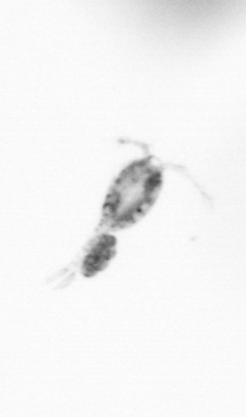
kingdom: Animalia
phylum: Arthropoda
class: Copepoda
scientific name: Copepoda
